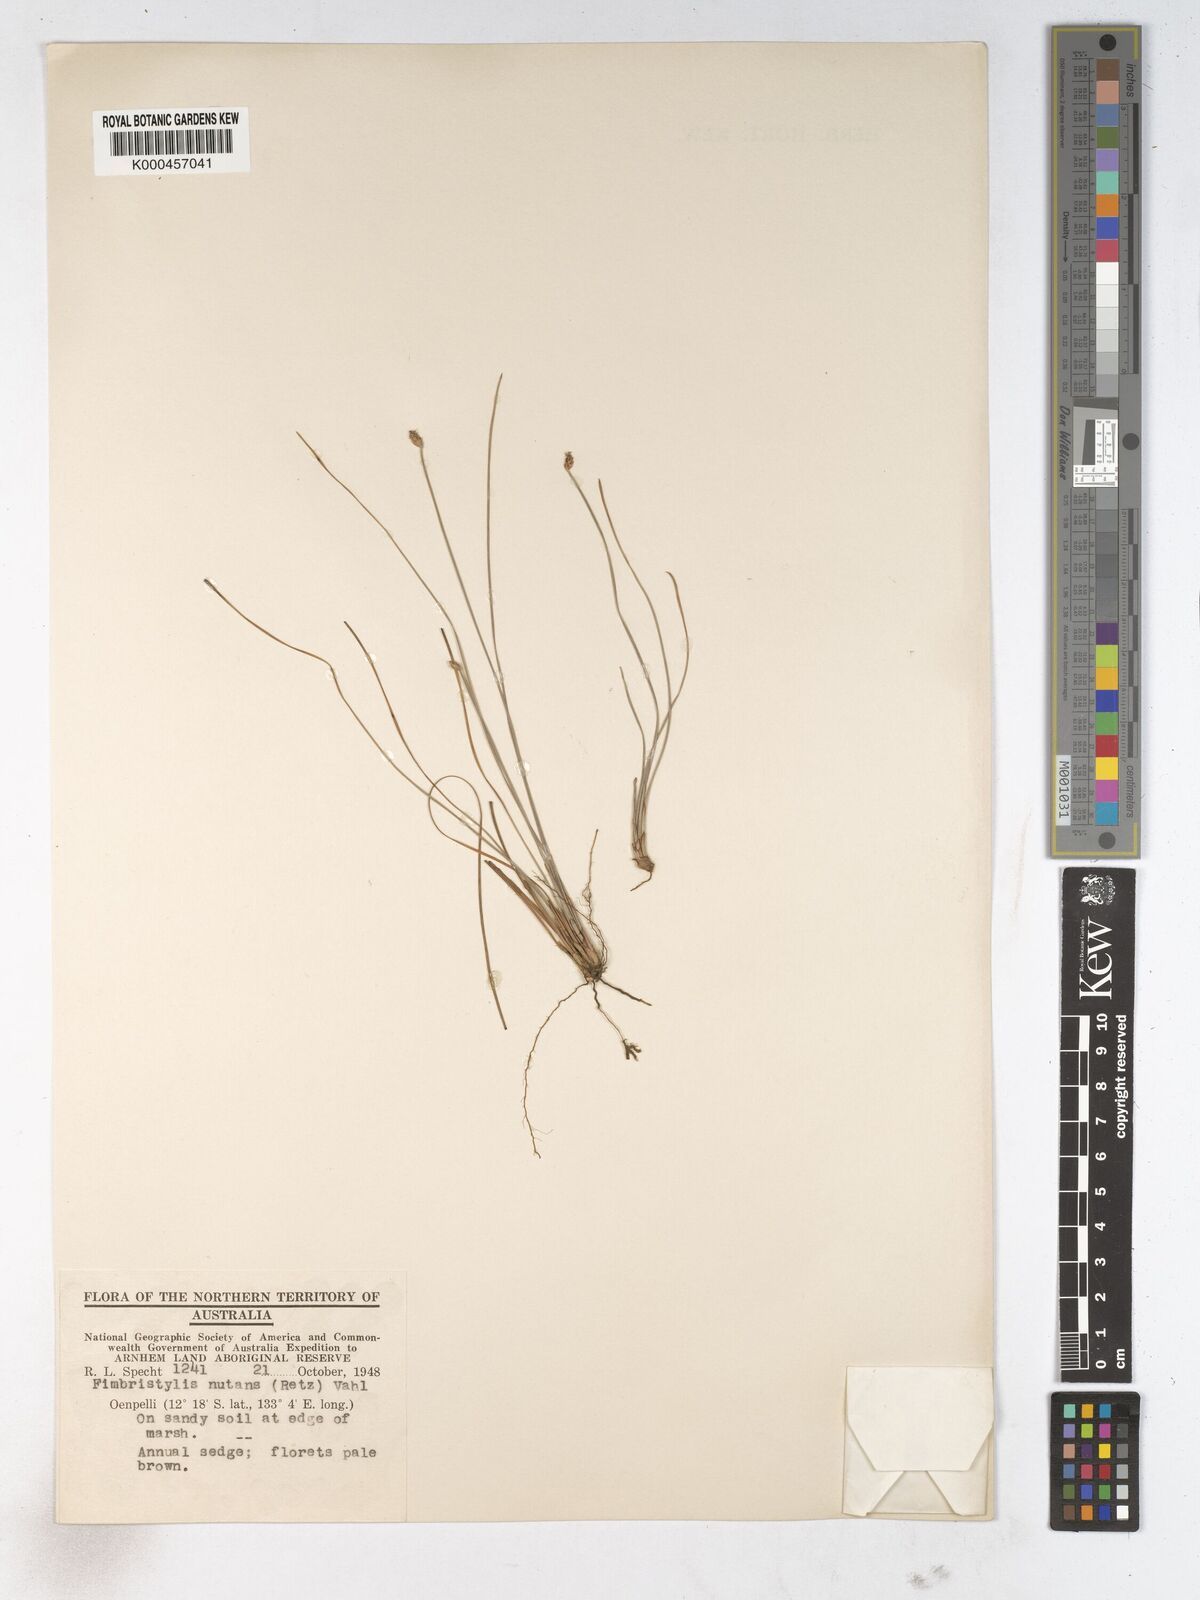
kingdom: Plantae
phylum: Tracheophyta
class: Liliopsida
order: Poales
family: Cyperaceae
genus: Fimbristylis
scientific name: Fimbristylis nutans
